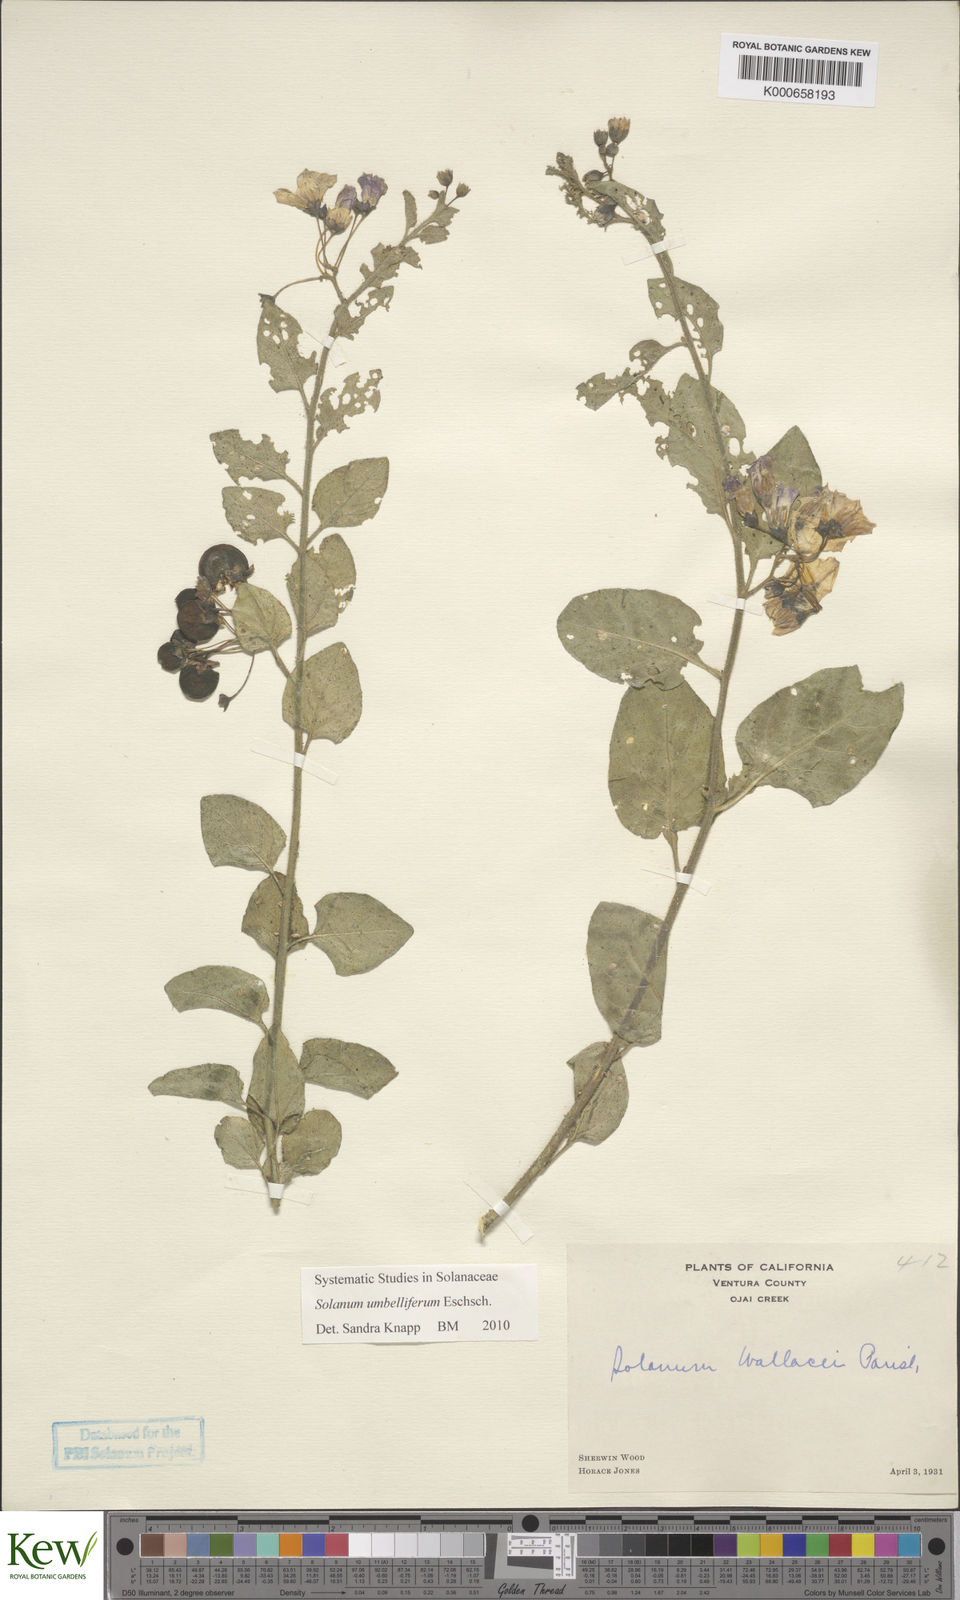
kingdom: Plantae
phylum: Tracheophyta
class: Magnoliopsida
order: Solanales
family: Solanaceae
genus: Solanum
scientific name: Solanum umbelliferum
